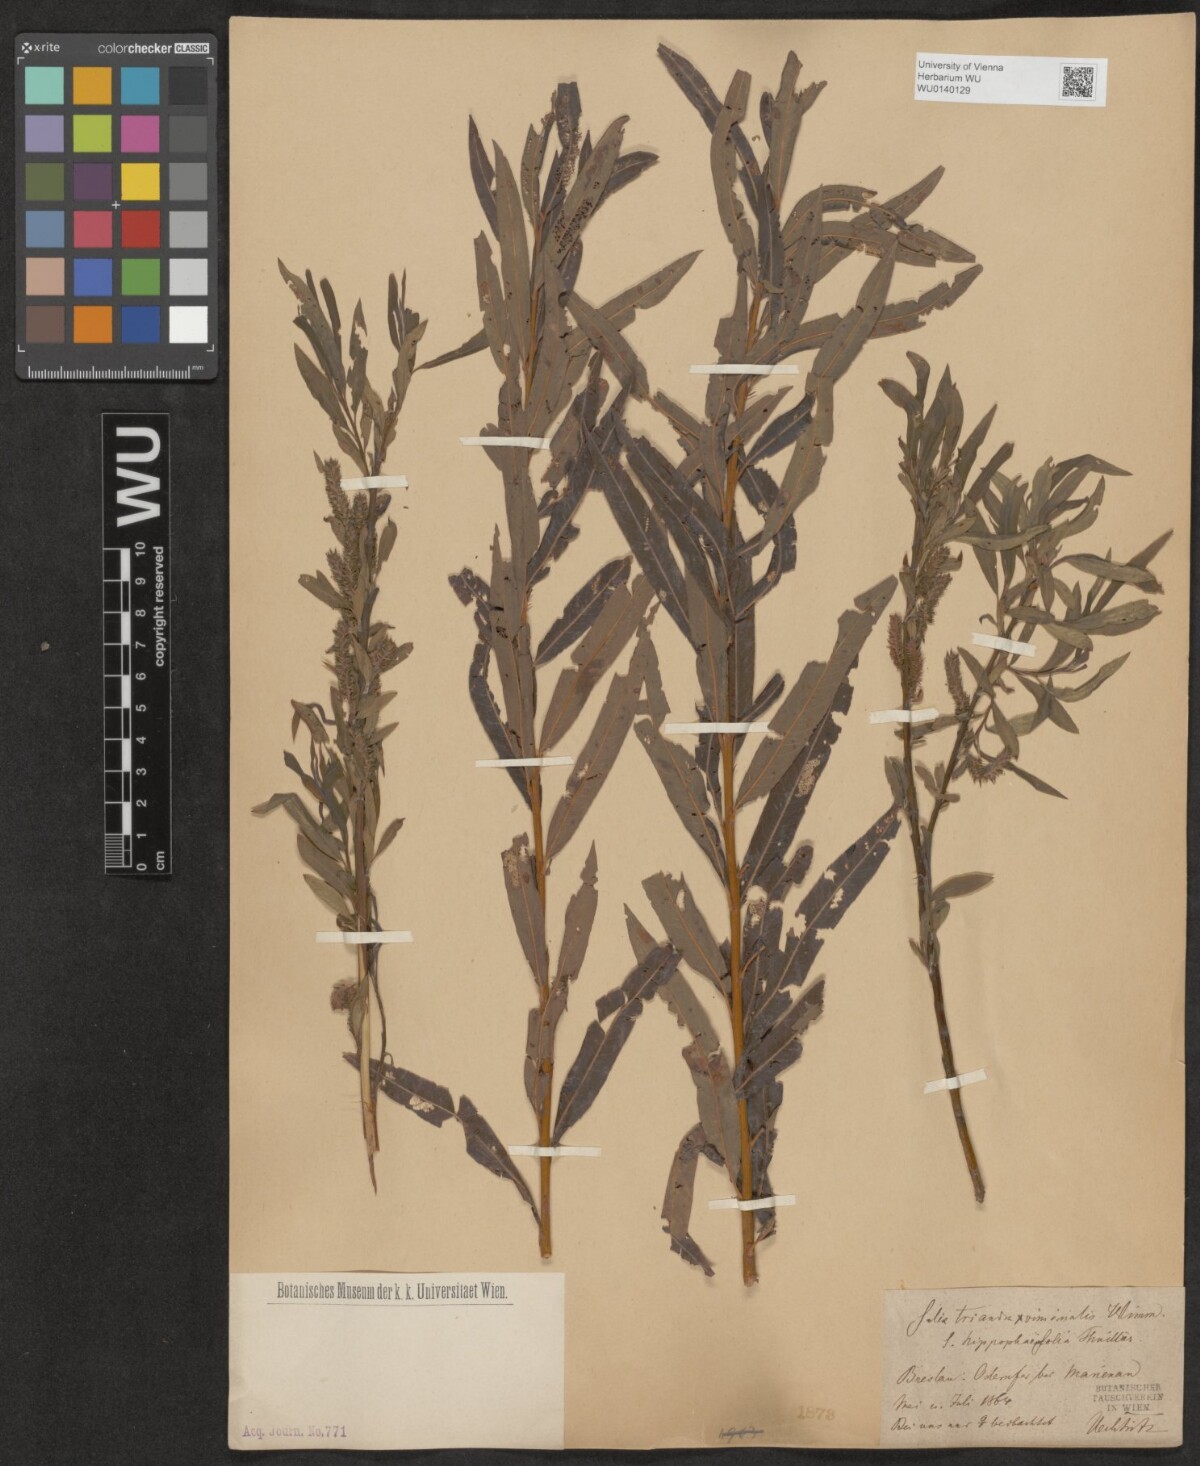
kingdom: Plantae
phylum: Tracheophyta
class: Magnoliopsida
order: Malpighiales
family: Salicaceae
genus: Salix
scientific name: Salix mollissima
